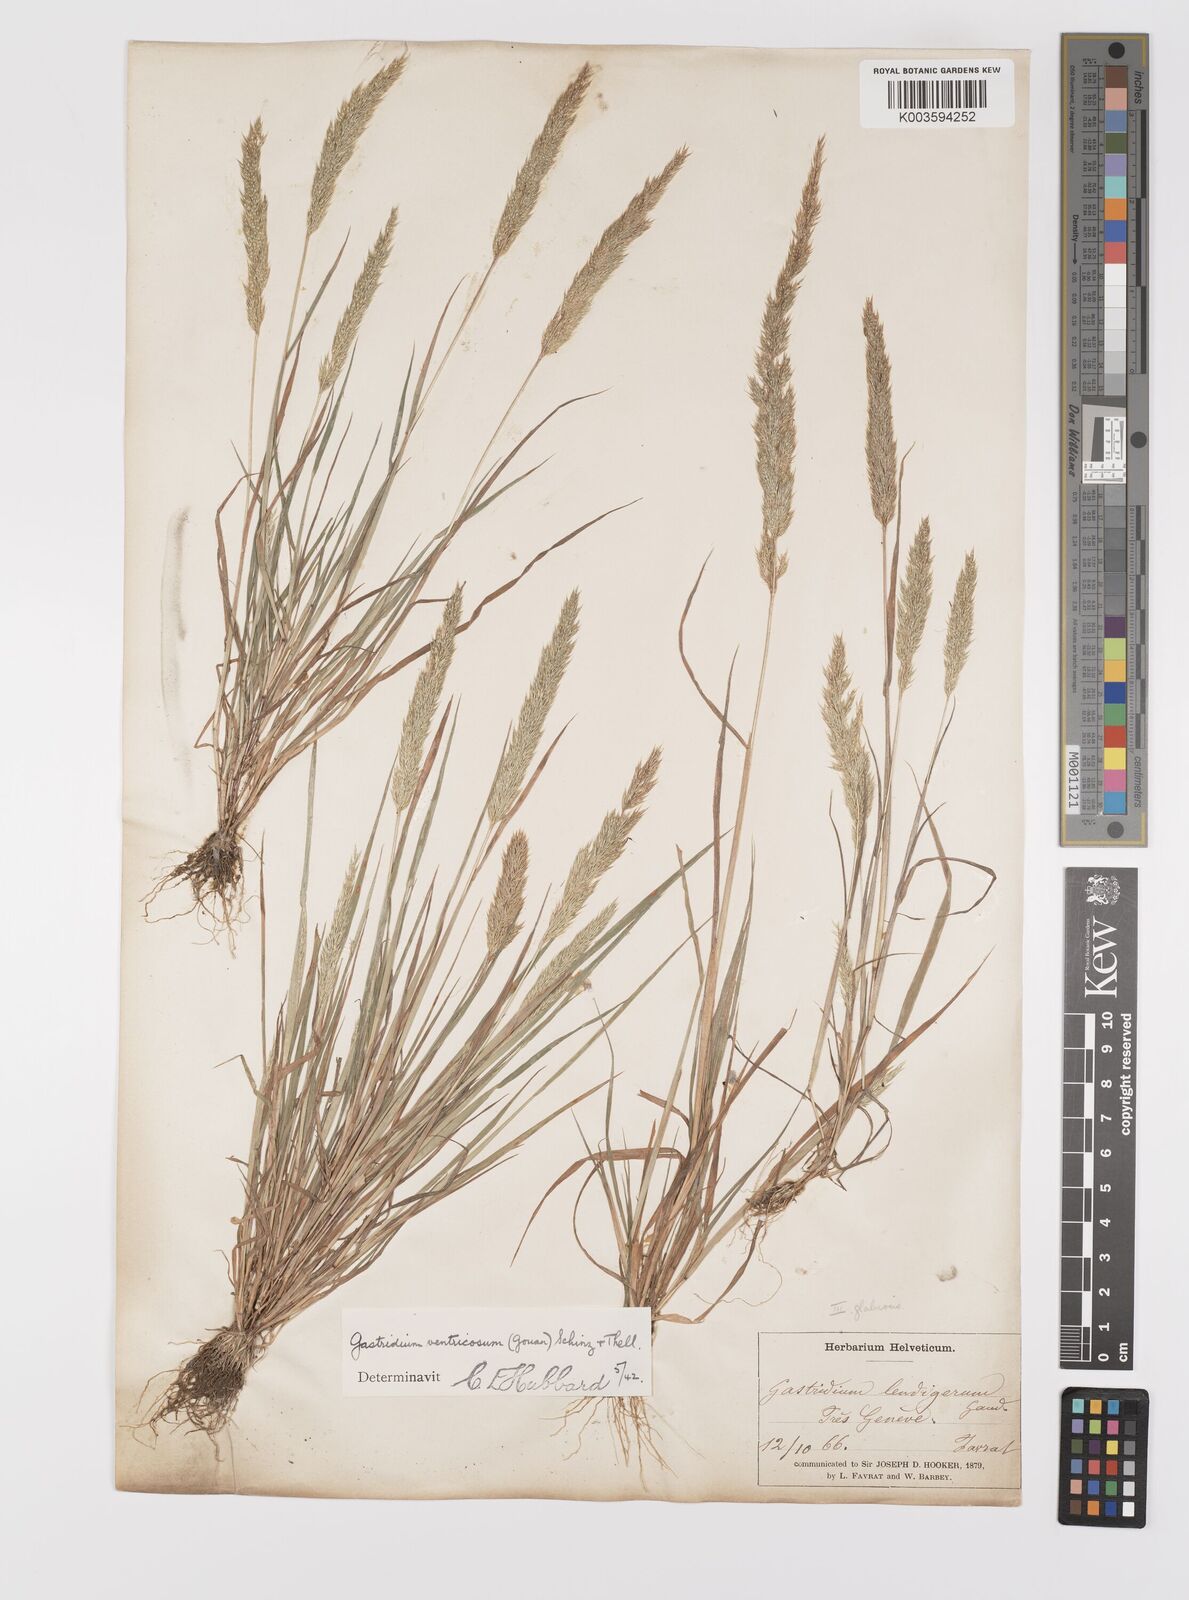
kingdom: Plantae
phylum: Tracheophyta
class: Liliopsida
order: Poales
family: Poaceae
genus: Gastridium
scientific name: Gastridium ventricosum
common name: Nit-grass
